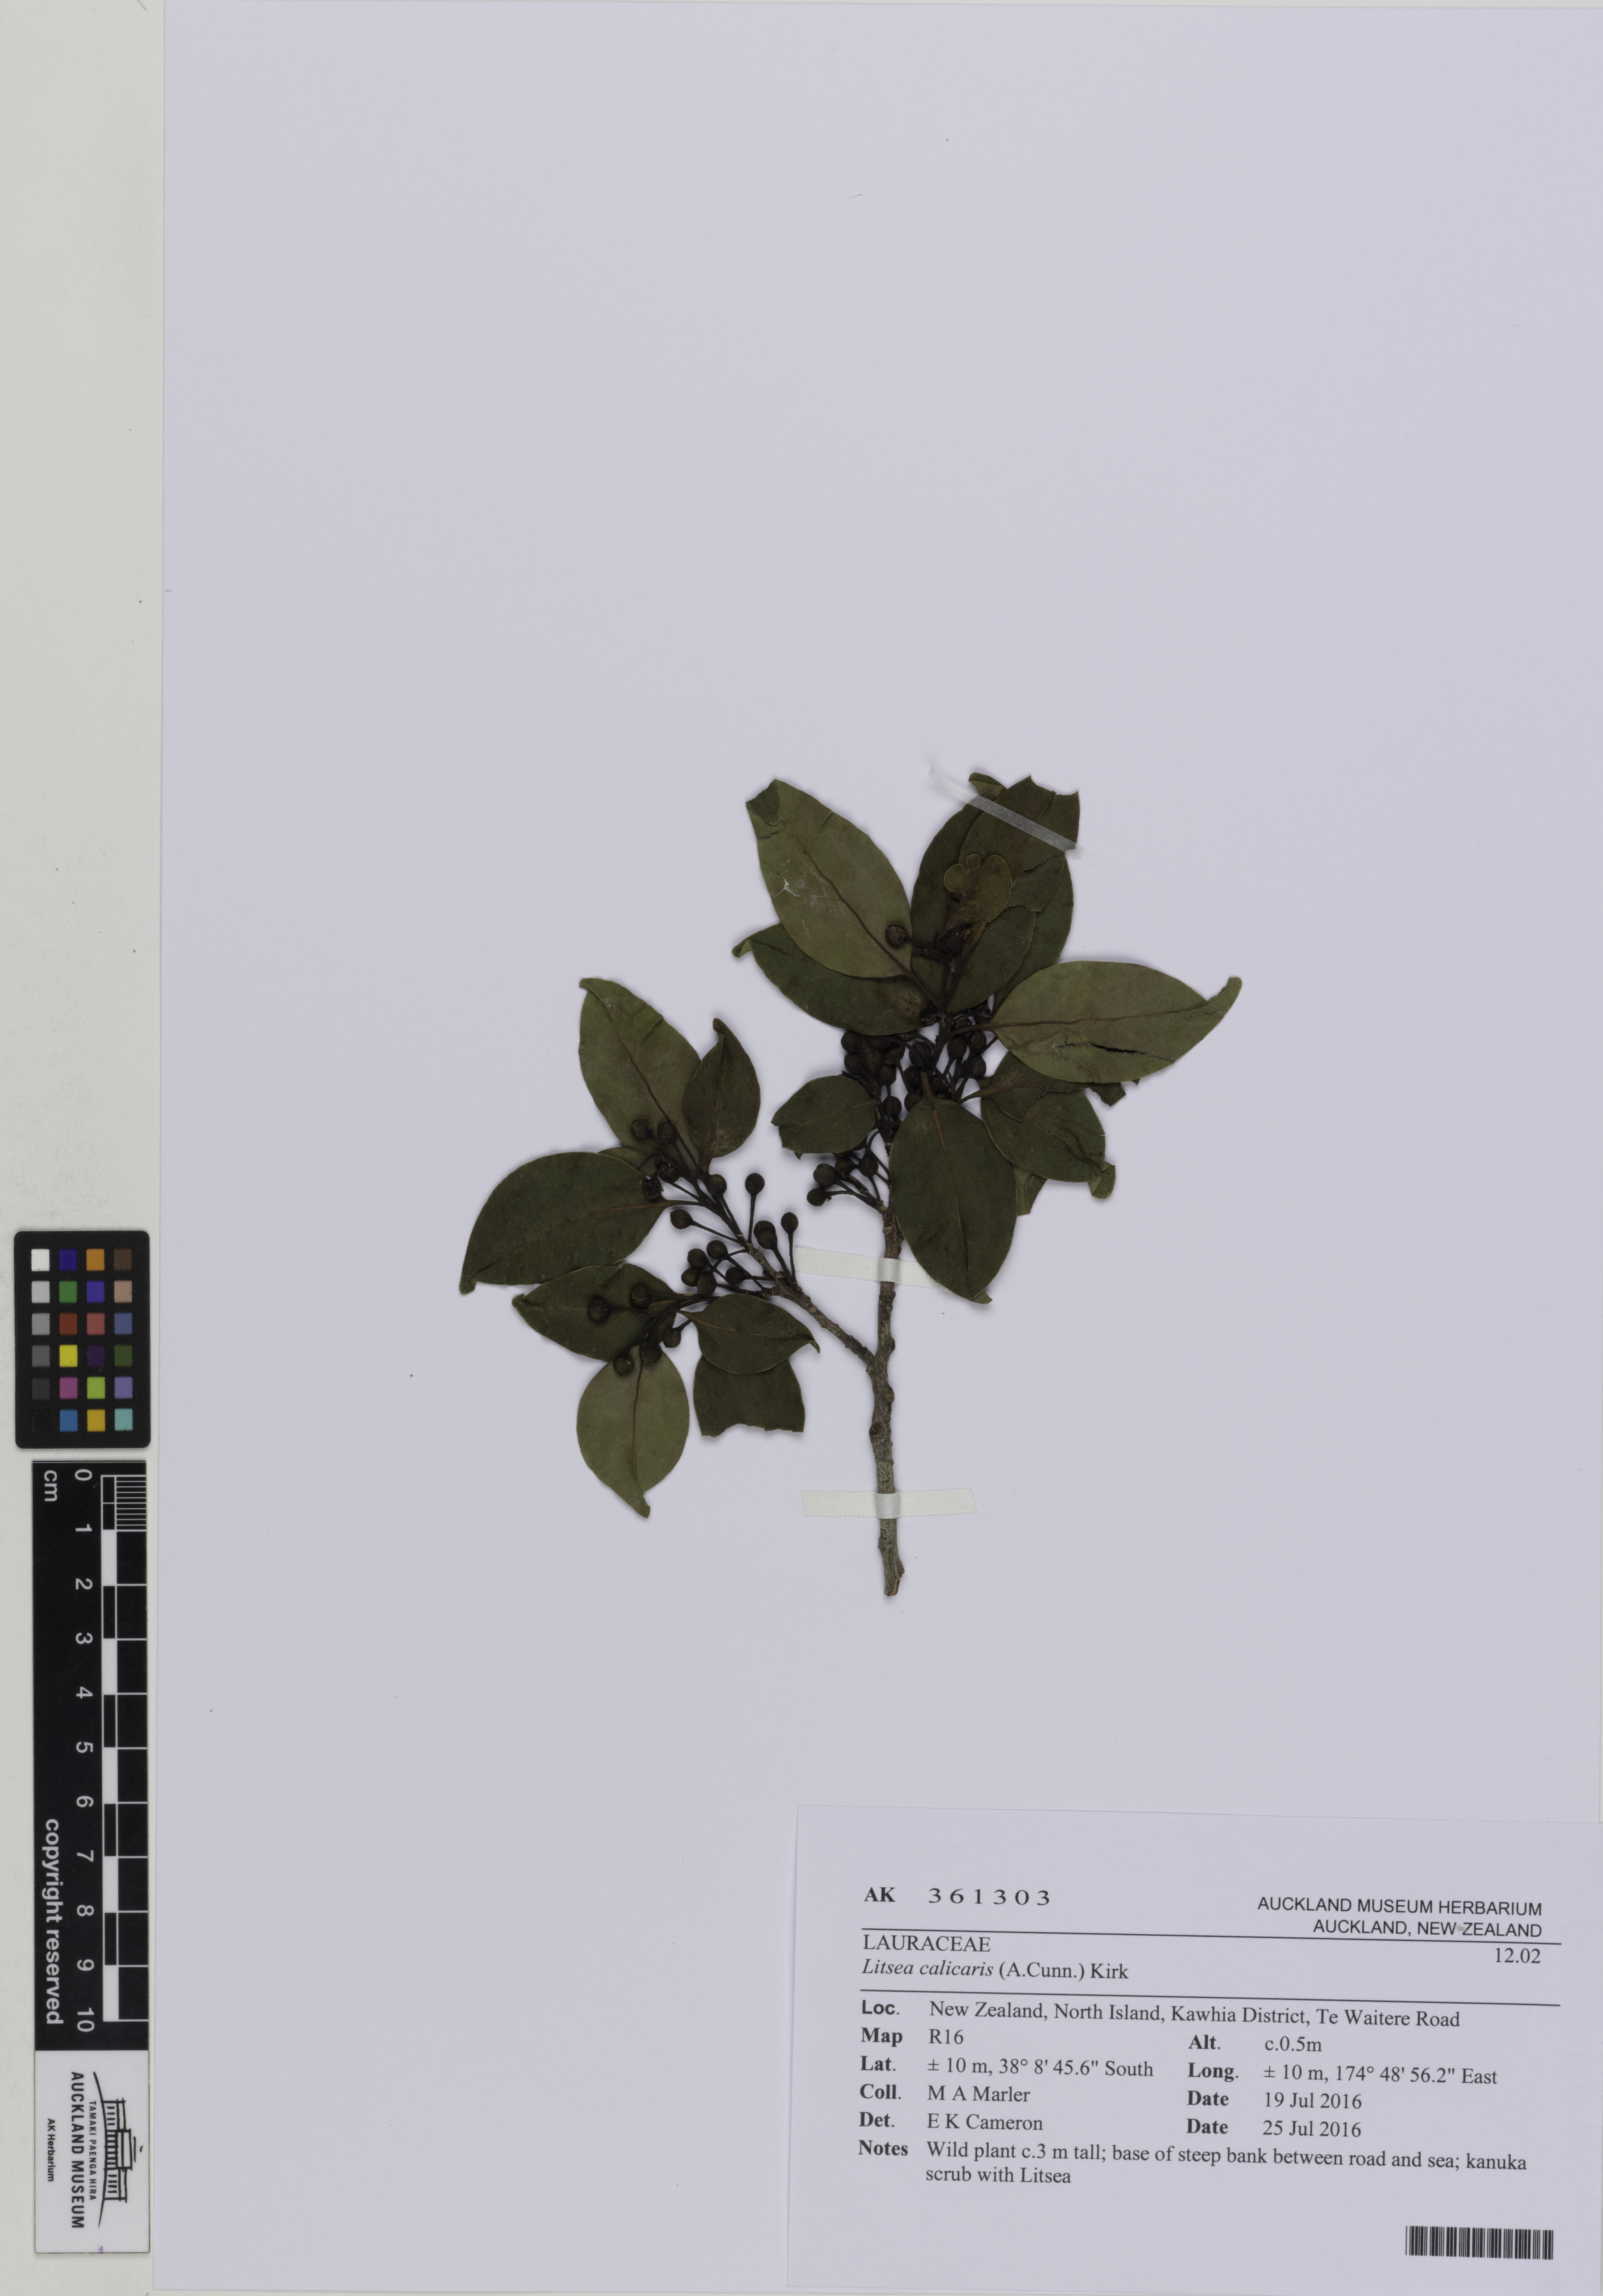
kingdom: Plantae
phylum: Tracheophyta
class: Magnoliopsida
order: Laurales
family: Lauraceae
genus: Litsea
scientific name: Litsea calicaris
